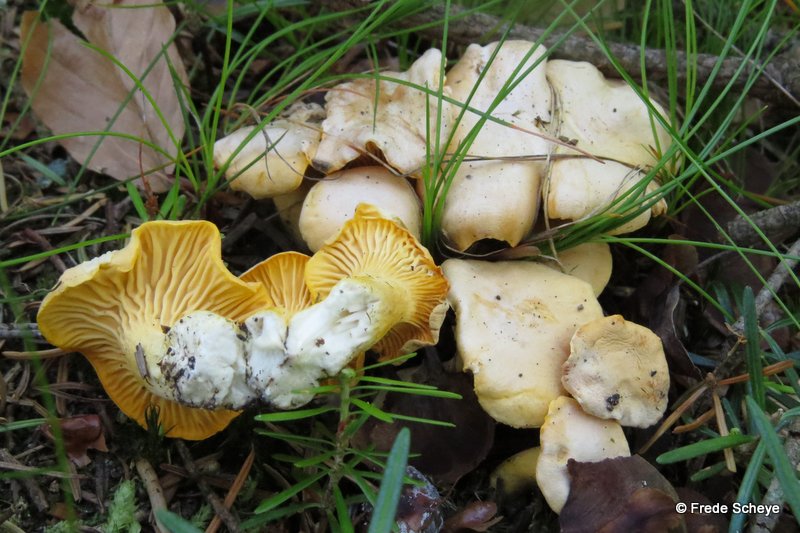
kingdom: Fungi
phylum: Basidiomycota
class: Agaricomycetes
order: Cantharellales
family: Hydnaceae
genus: Cantharellus
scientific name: Cantharellus cibarius
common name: almindelig kantarel
